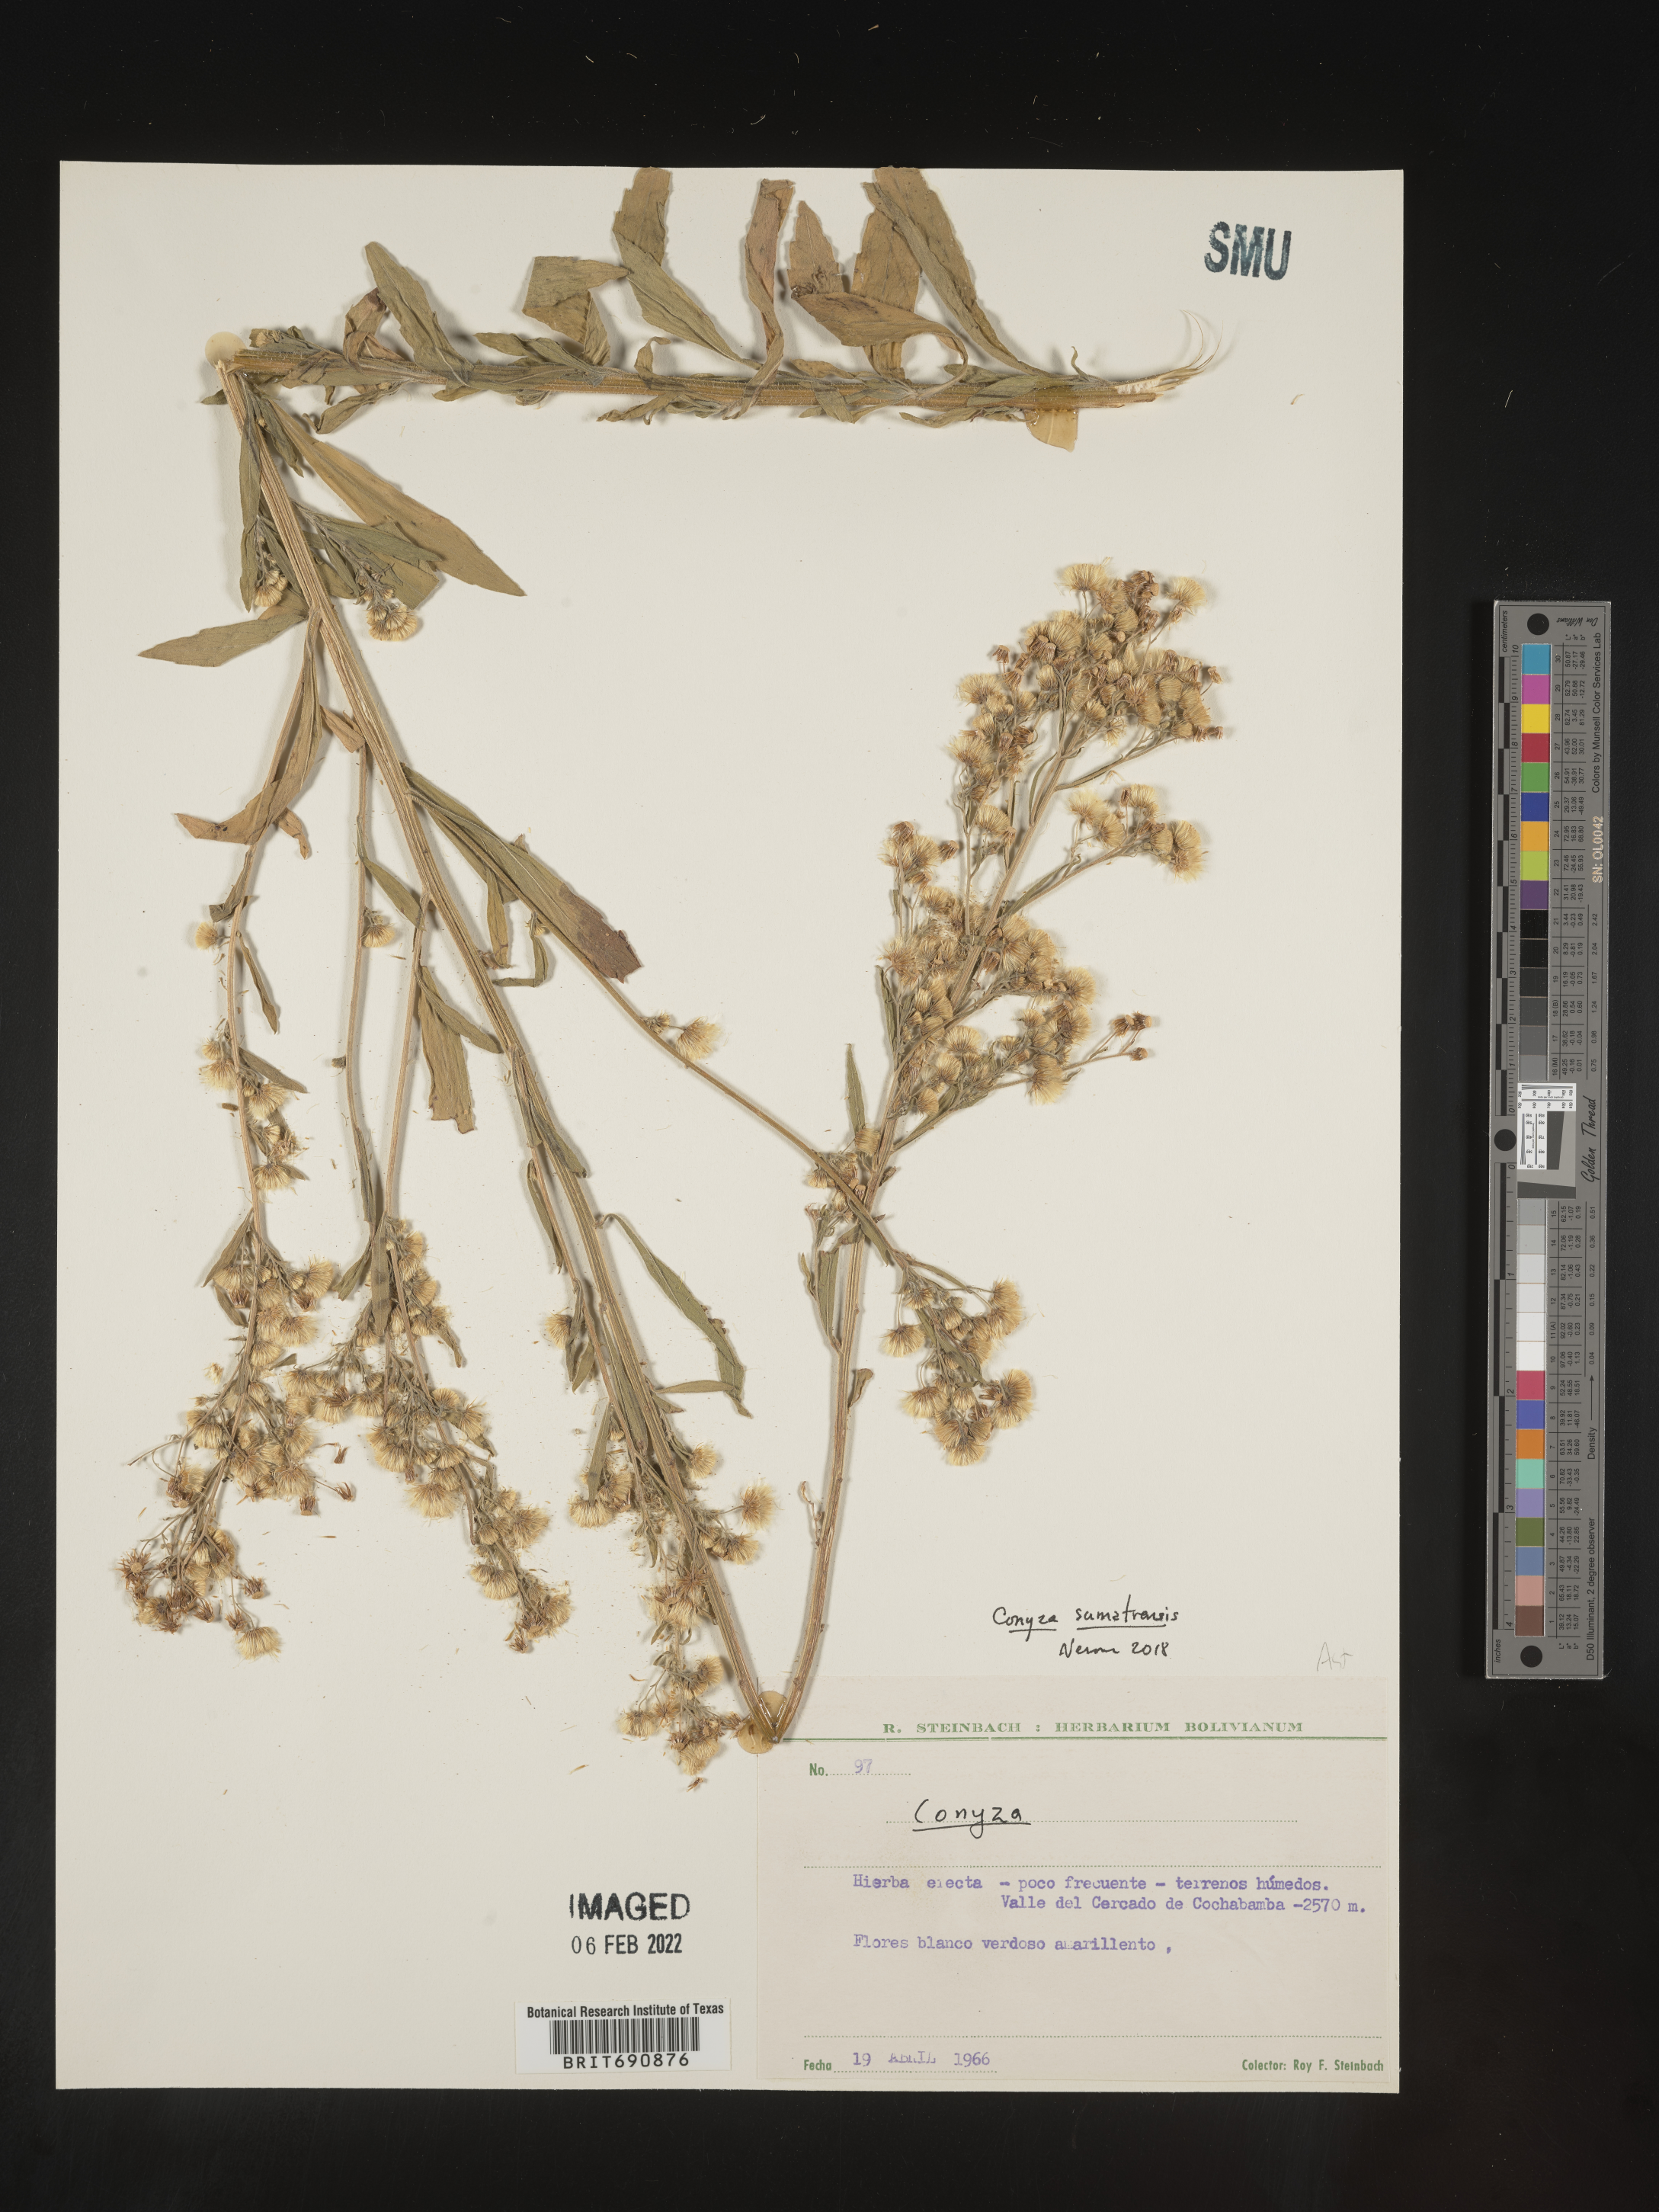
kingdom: Plantae
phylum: Tracheophyta
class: Magnoliopsida
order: Asterales
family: Asteraceae
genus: Conyza
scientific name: Conyza
